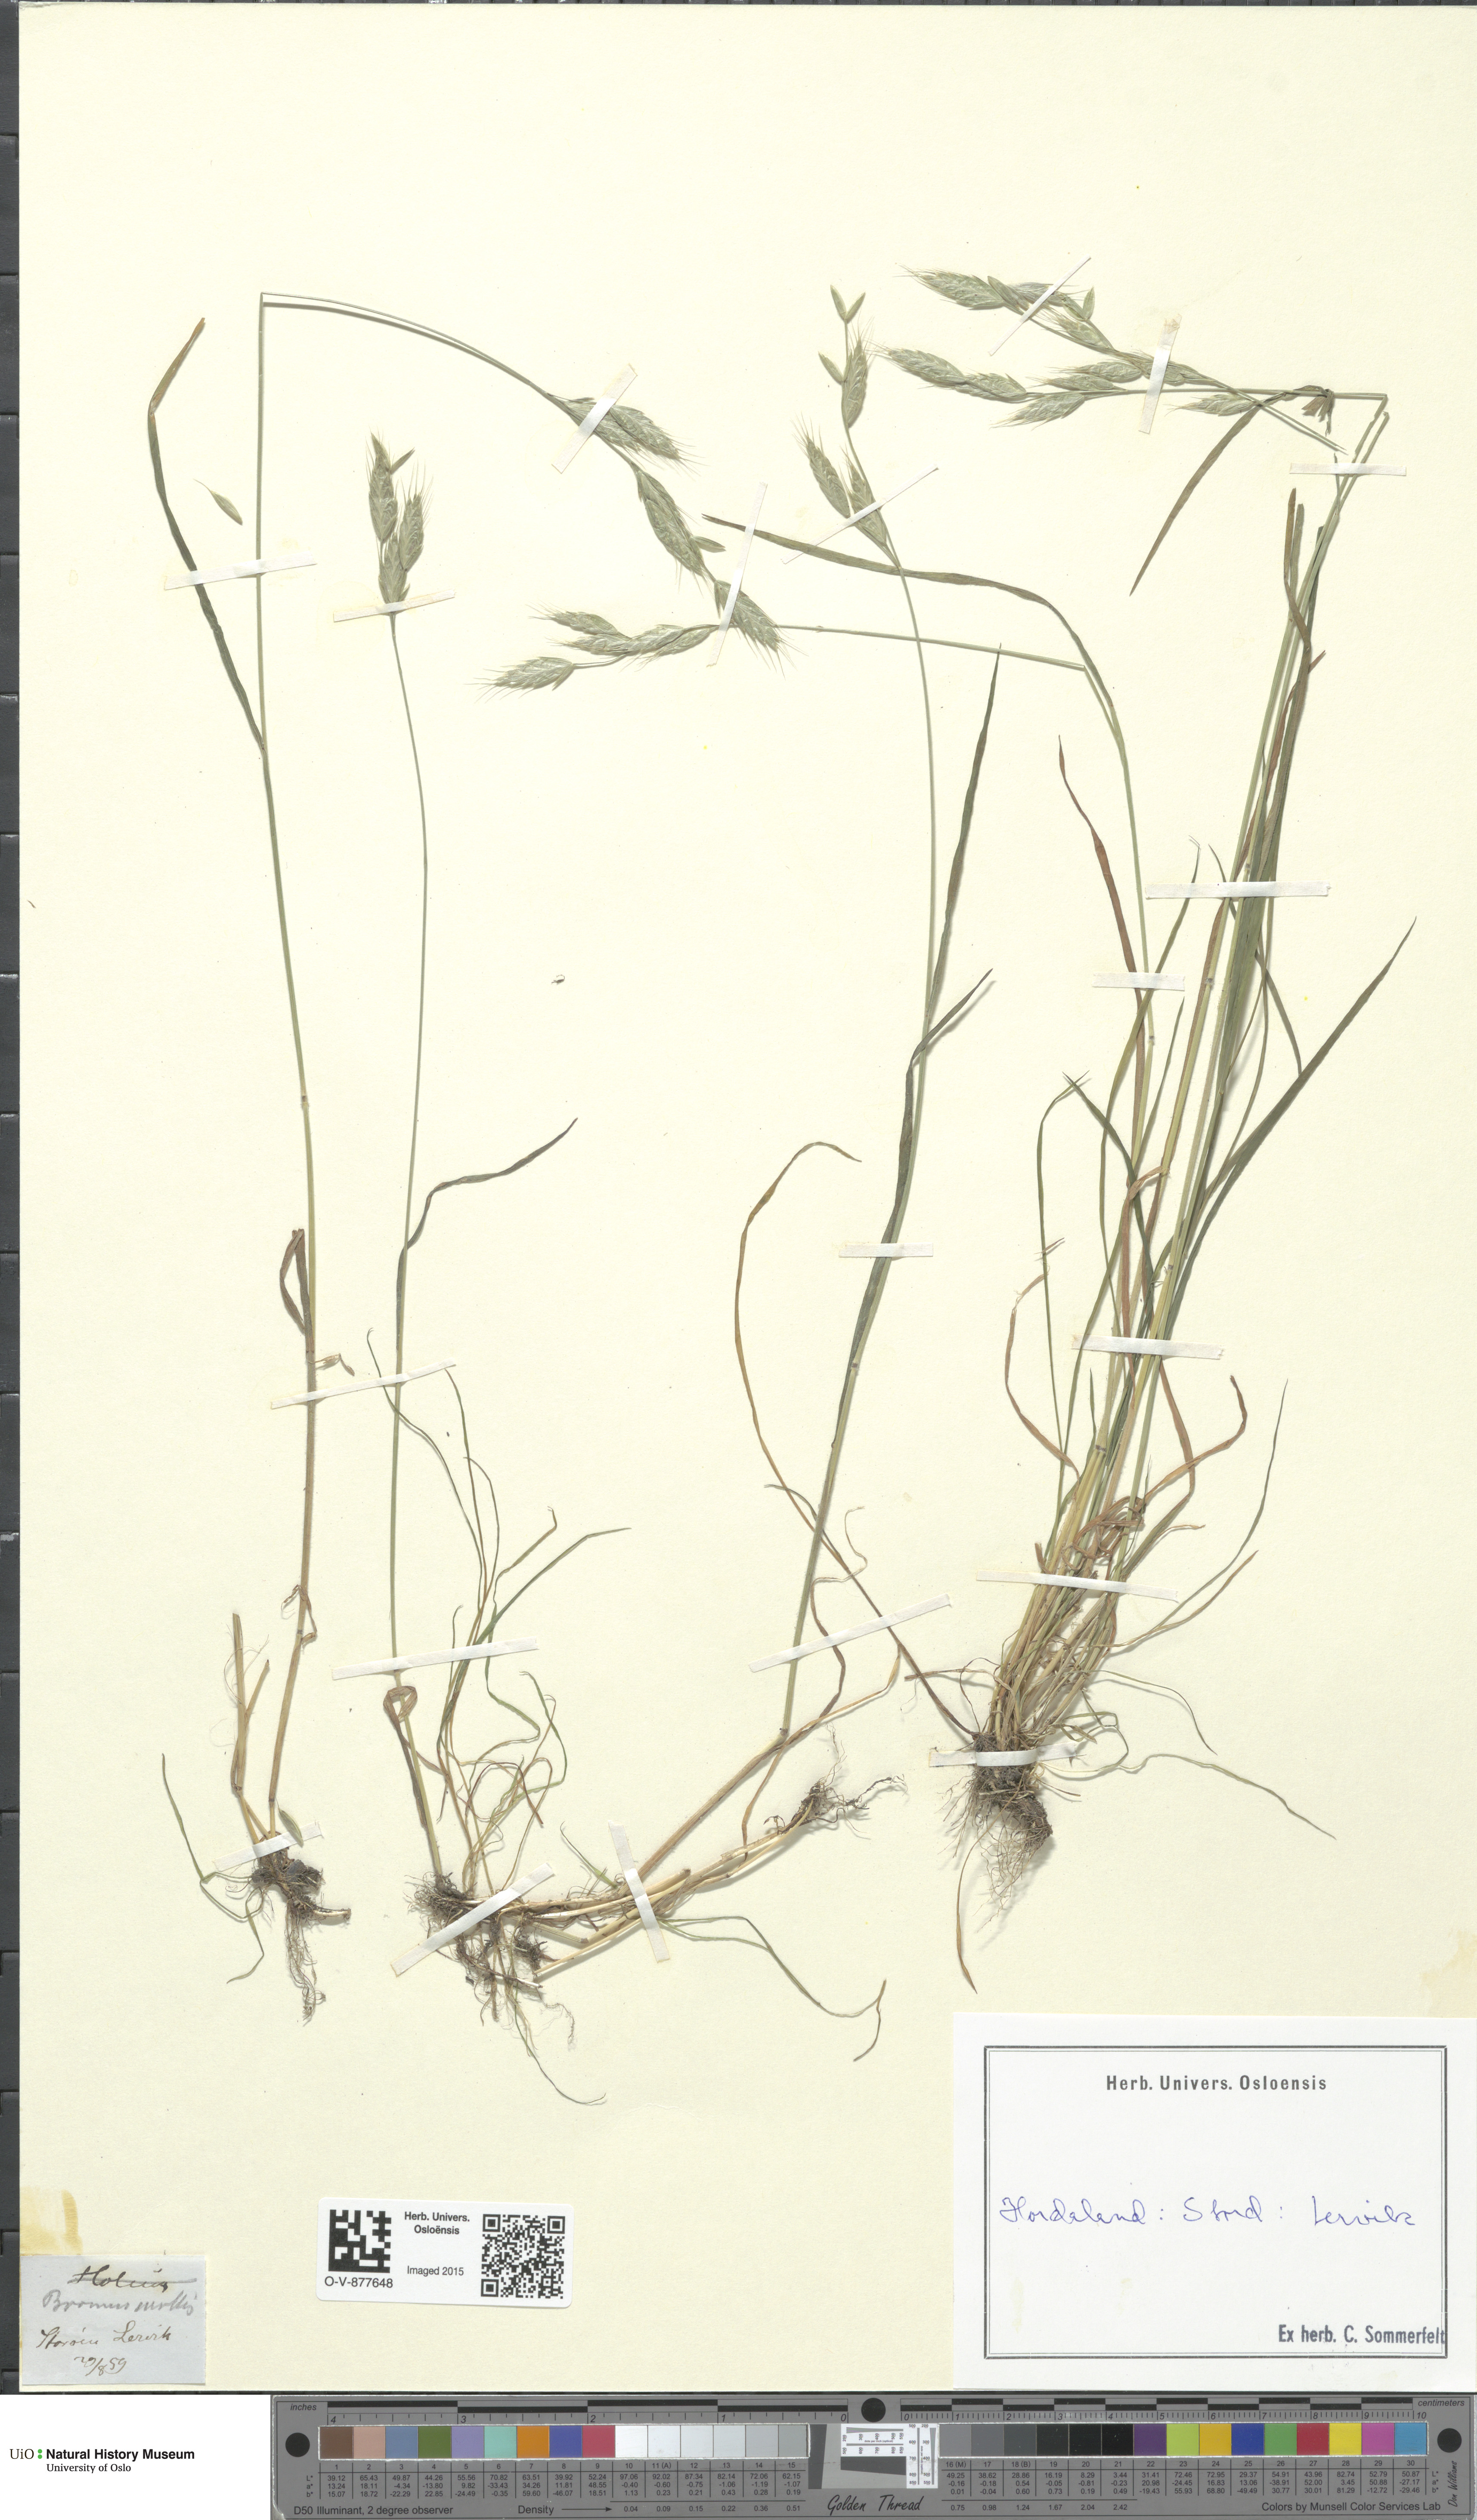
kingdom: Plantae
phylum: Tracheophyta
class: Liliopsida
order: Poales
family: Poaceae
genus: Bromus
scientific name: Bromus hordeaceus
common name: Soft brome
